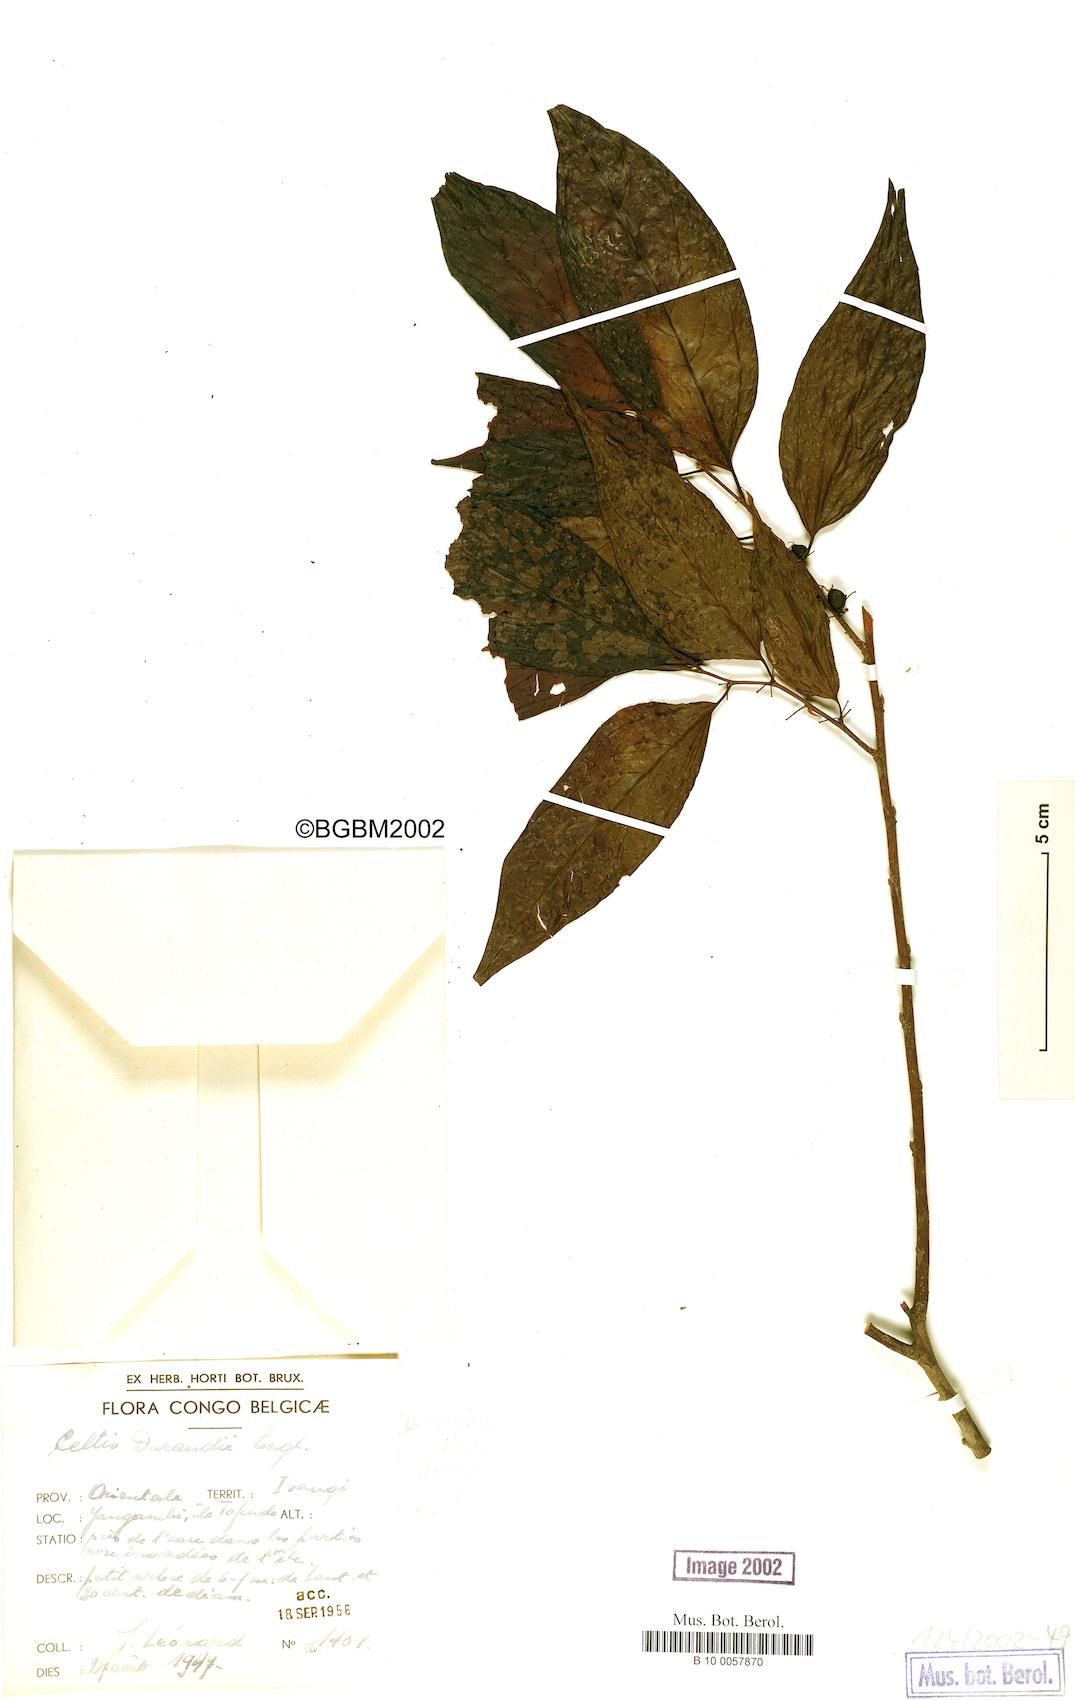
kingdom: Plantae
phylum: Tracheophyta
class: Magnoliopsida
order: Rosales
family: Cannabaceae
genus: Celtis
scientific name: Celtis gomphophylla
